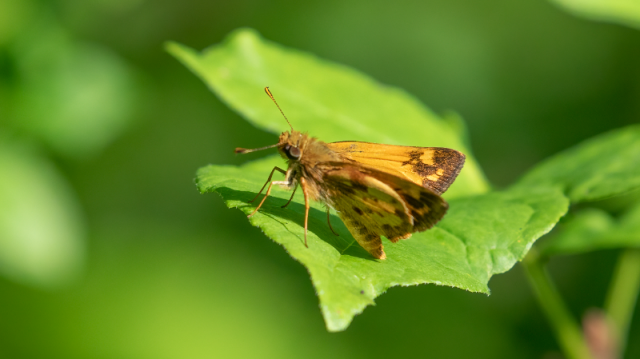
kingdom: Animalia
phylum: Arthropoda
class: Insecta
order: Lepidoptera
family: Hesperiidae
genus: Lon
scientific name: Lon zabulon
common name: Zabulon Skipper
